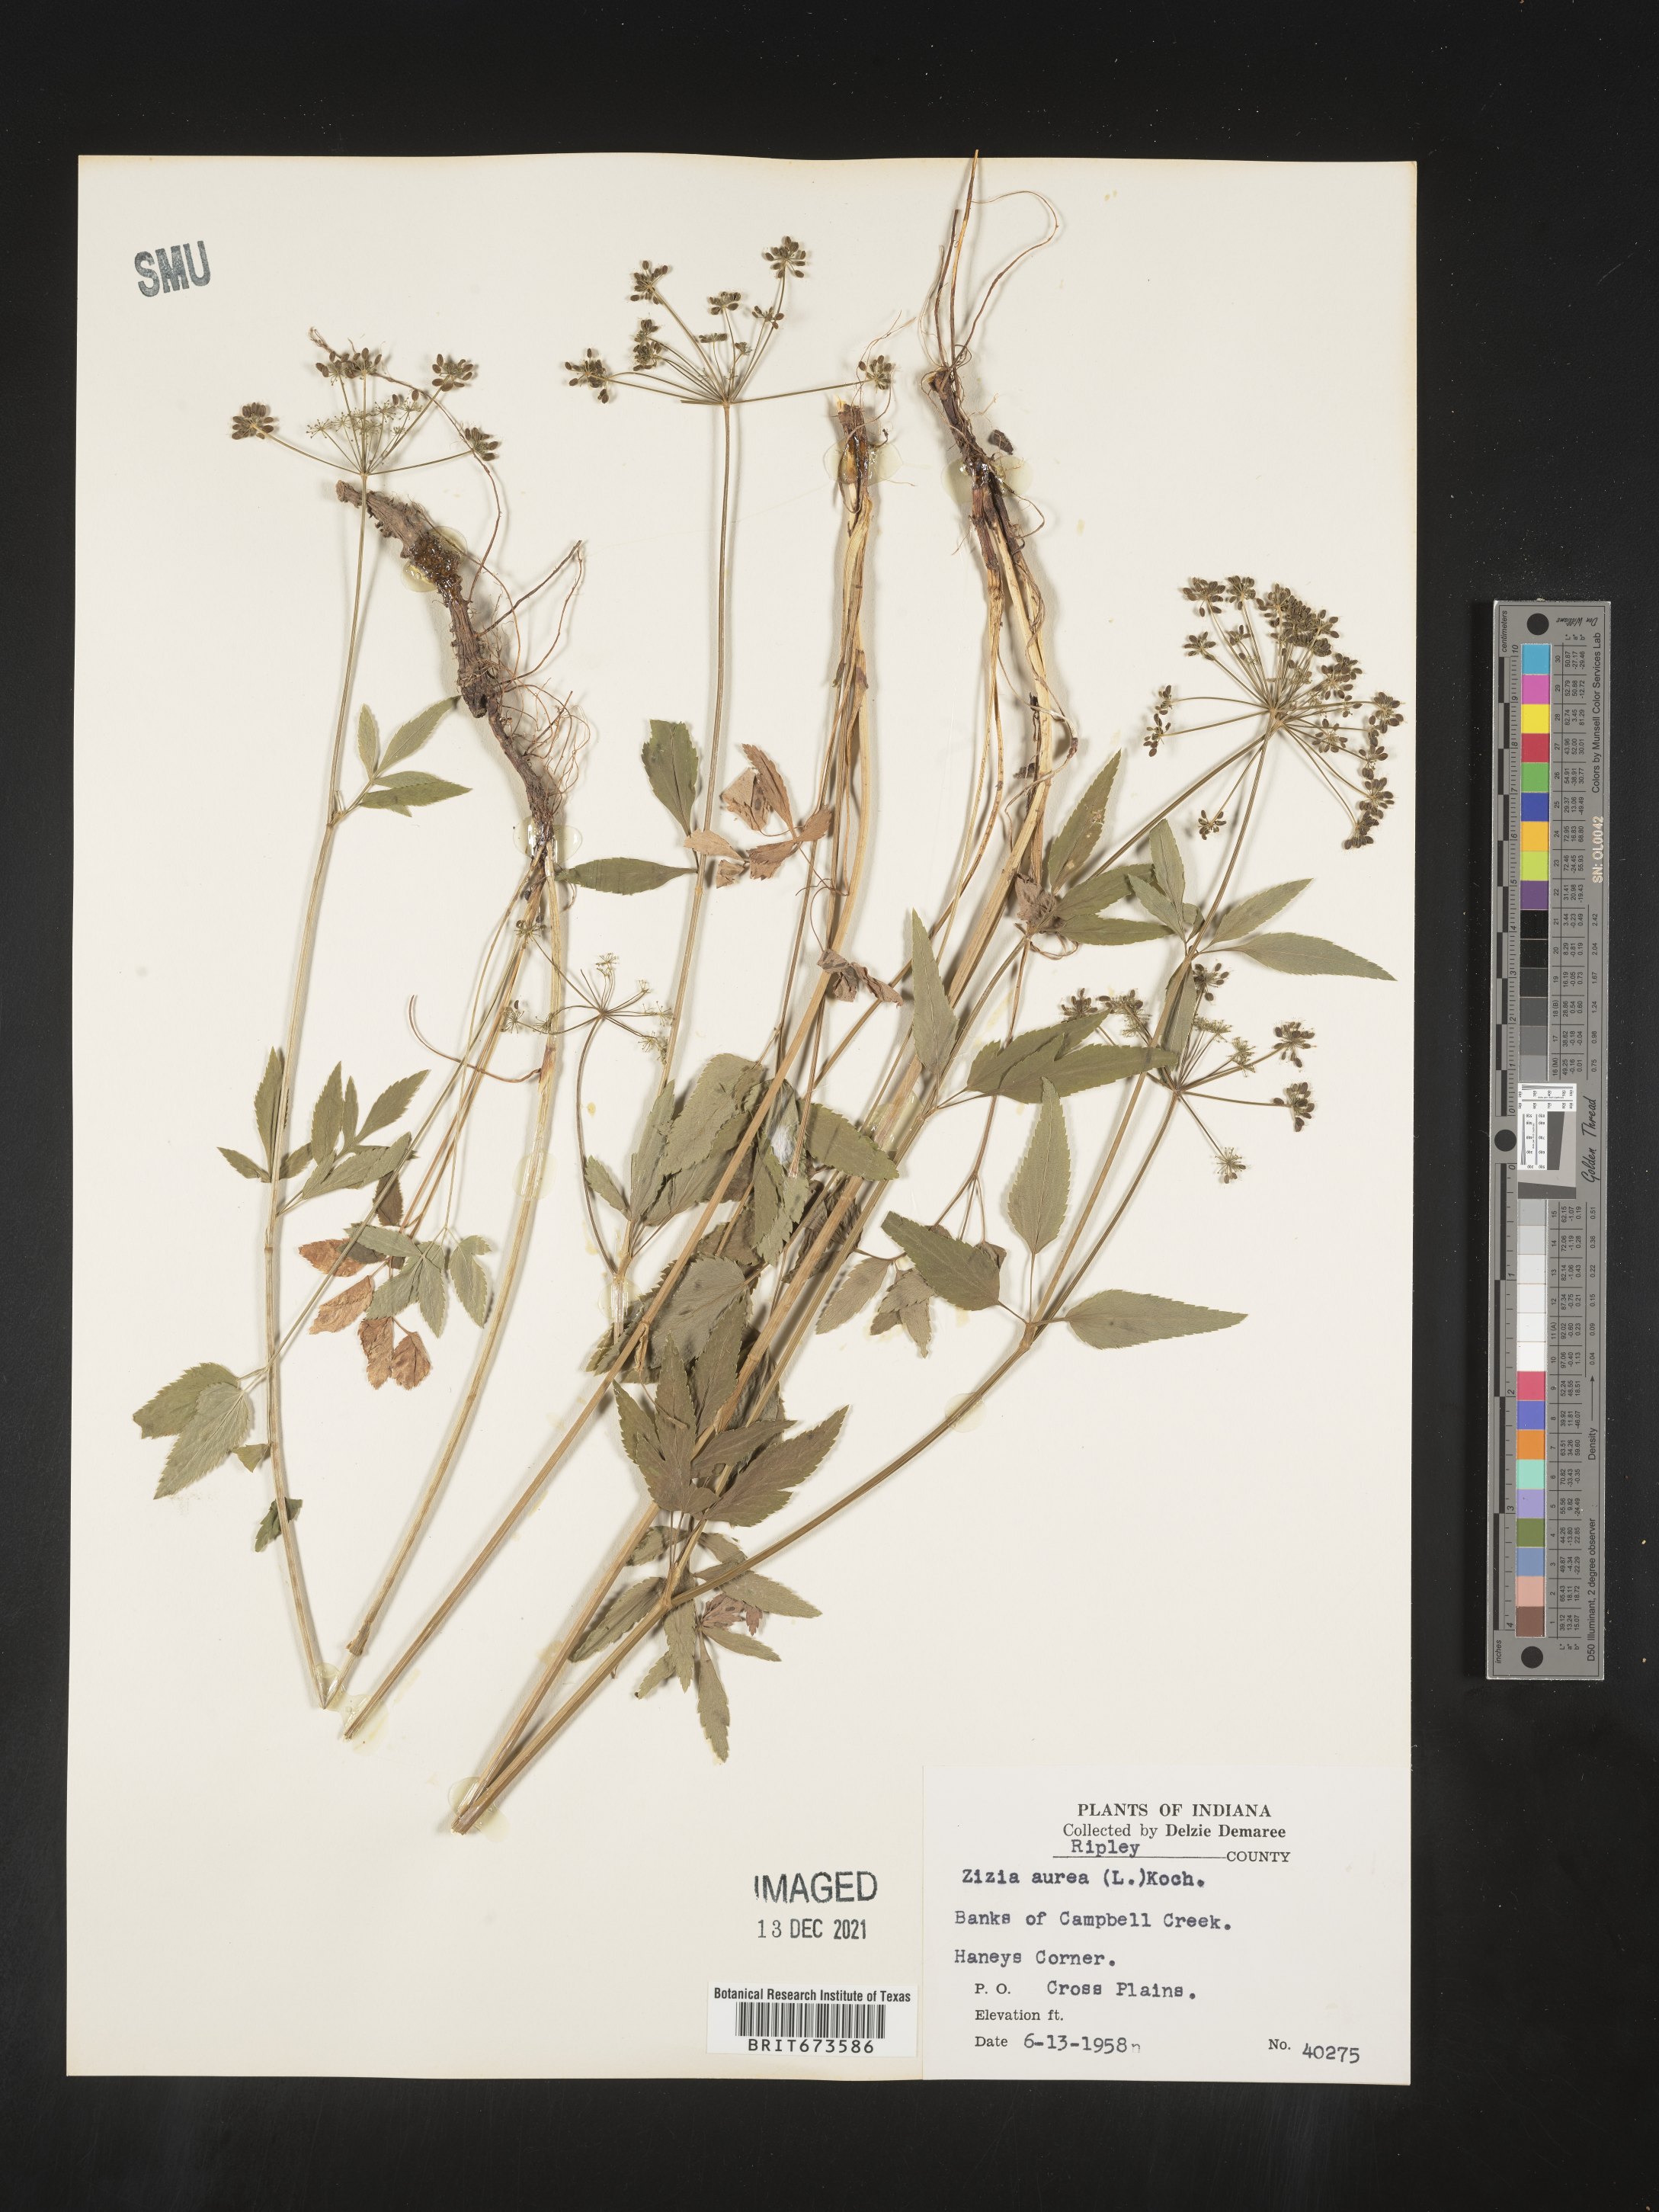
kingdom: Plantae
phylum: Tracheophyta
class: Magnoliopsida
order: Apiales
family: Apiaceae
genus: Zizia
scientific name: Zizia aurea
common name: Golden alexanders
